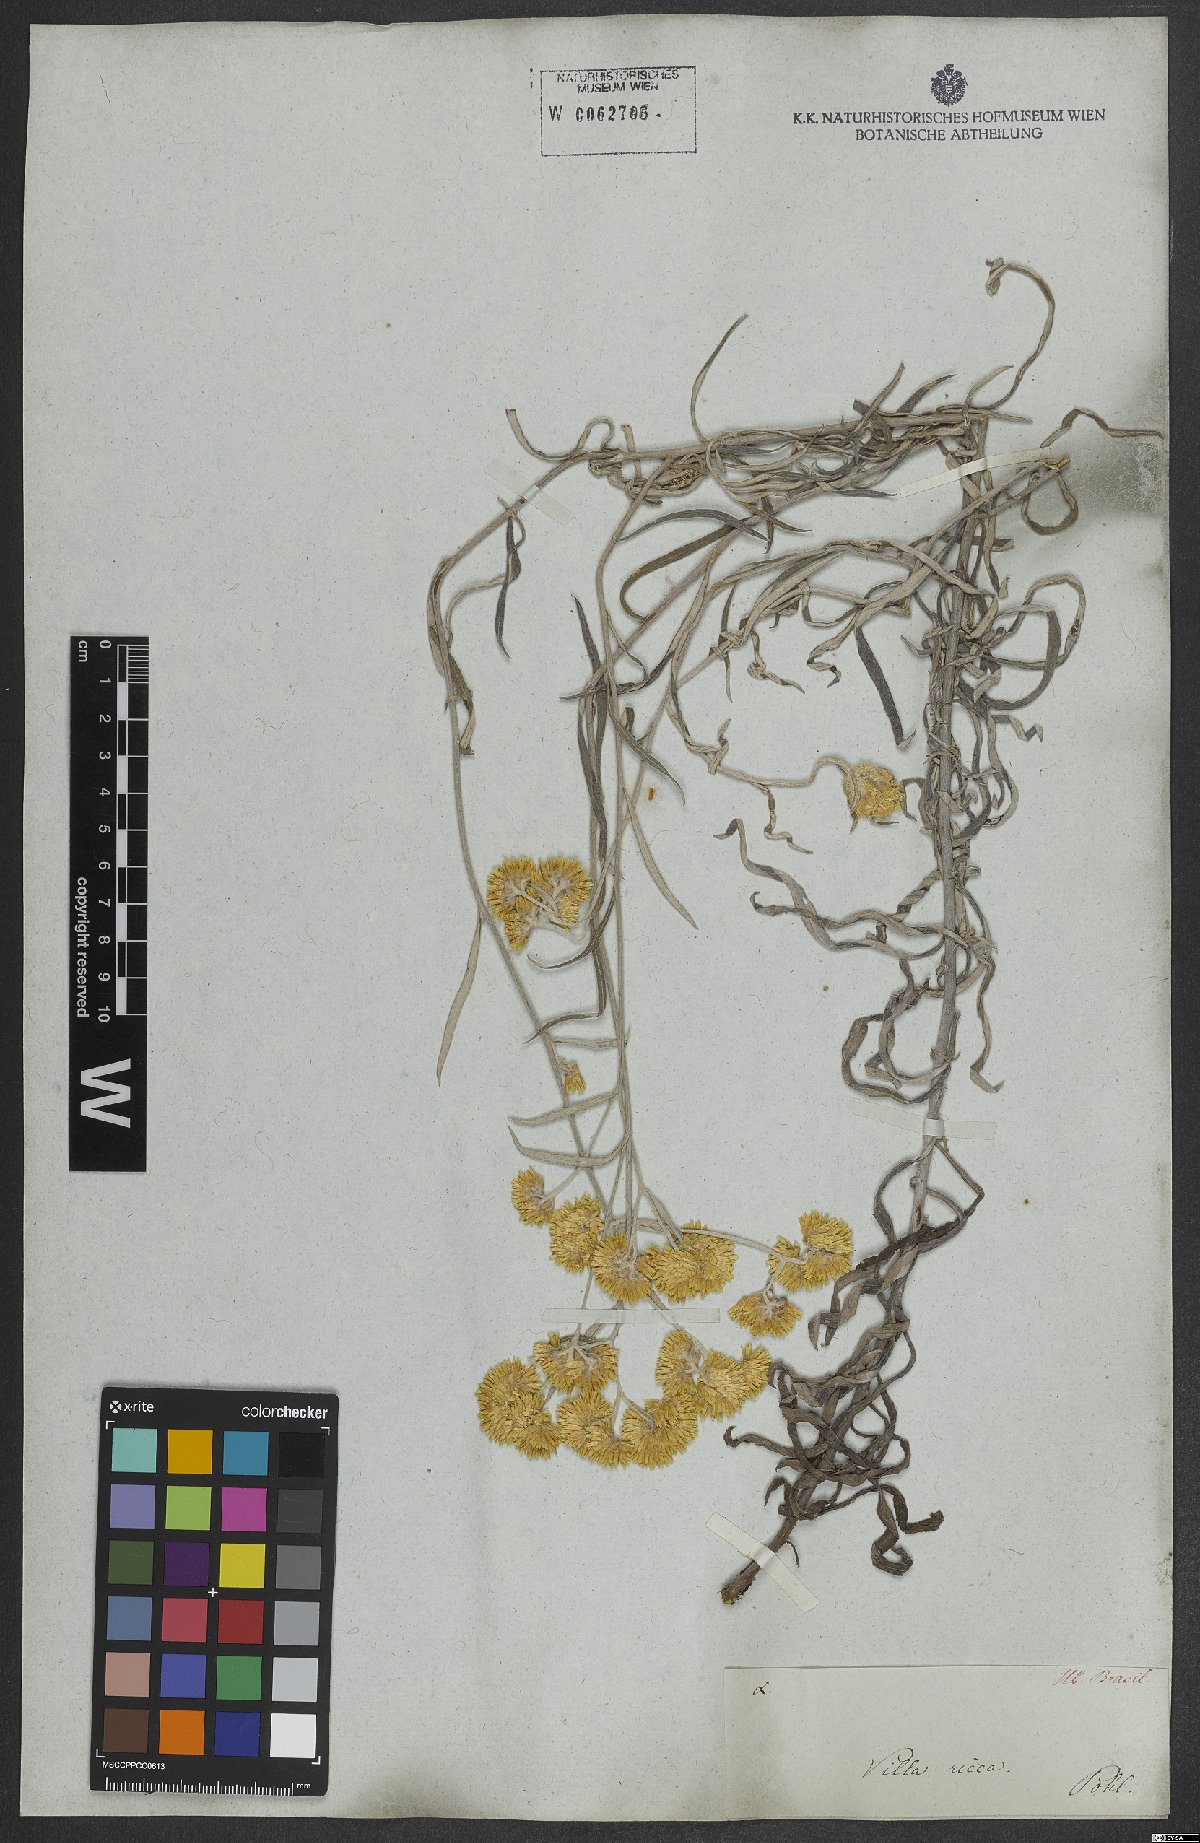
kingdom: Plantae
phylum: Tracheophyta
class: Magnoliopsida
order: Asterales
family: Asteraceae
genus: Achyrocline
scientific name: Achyrocline flaccida
